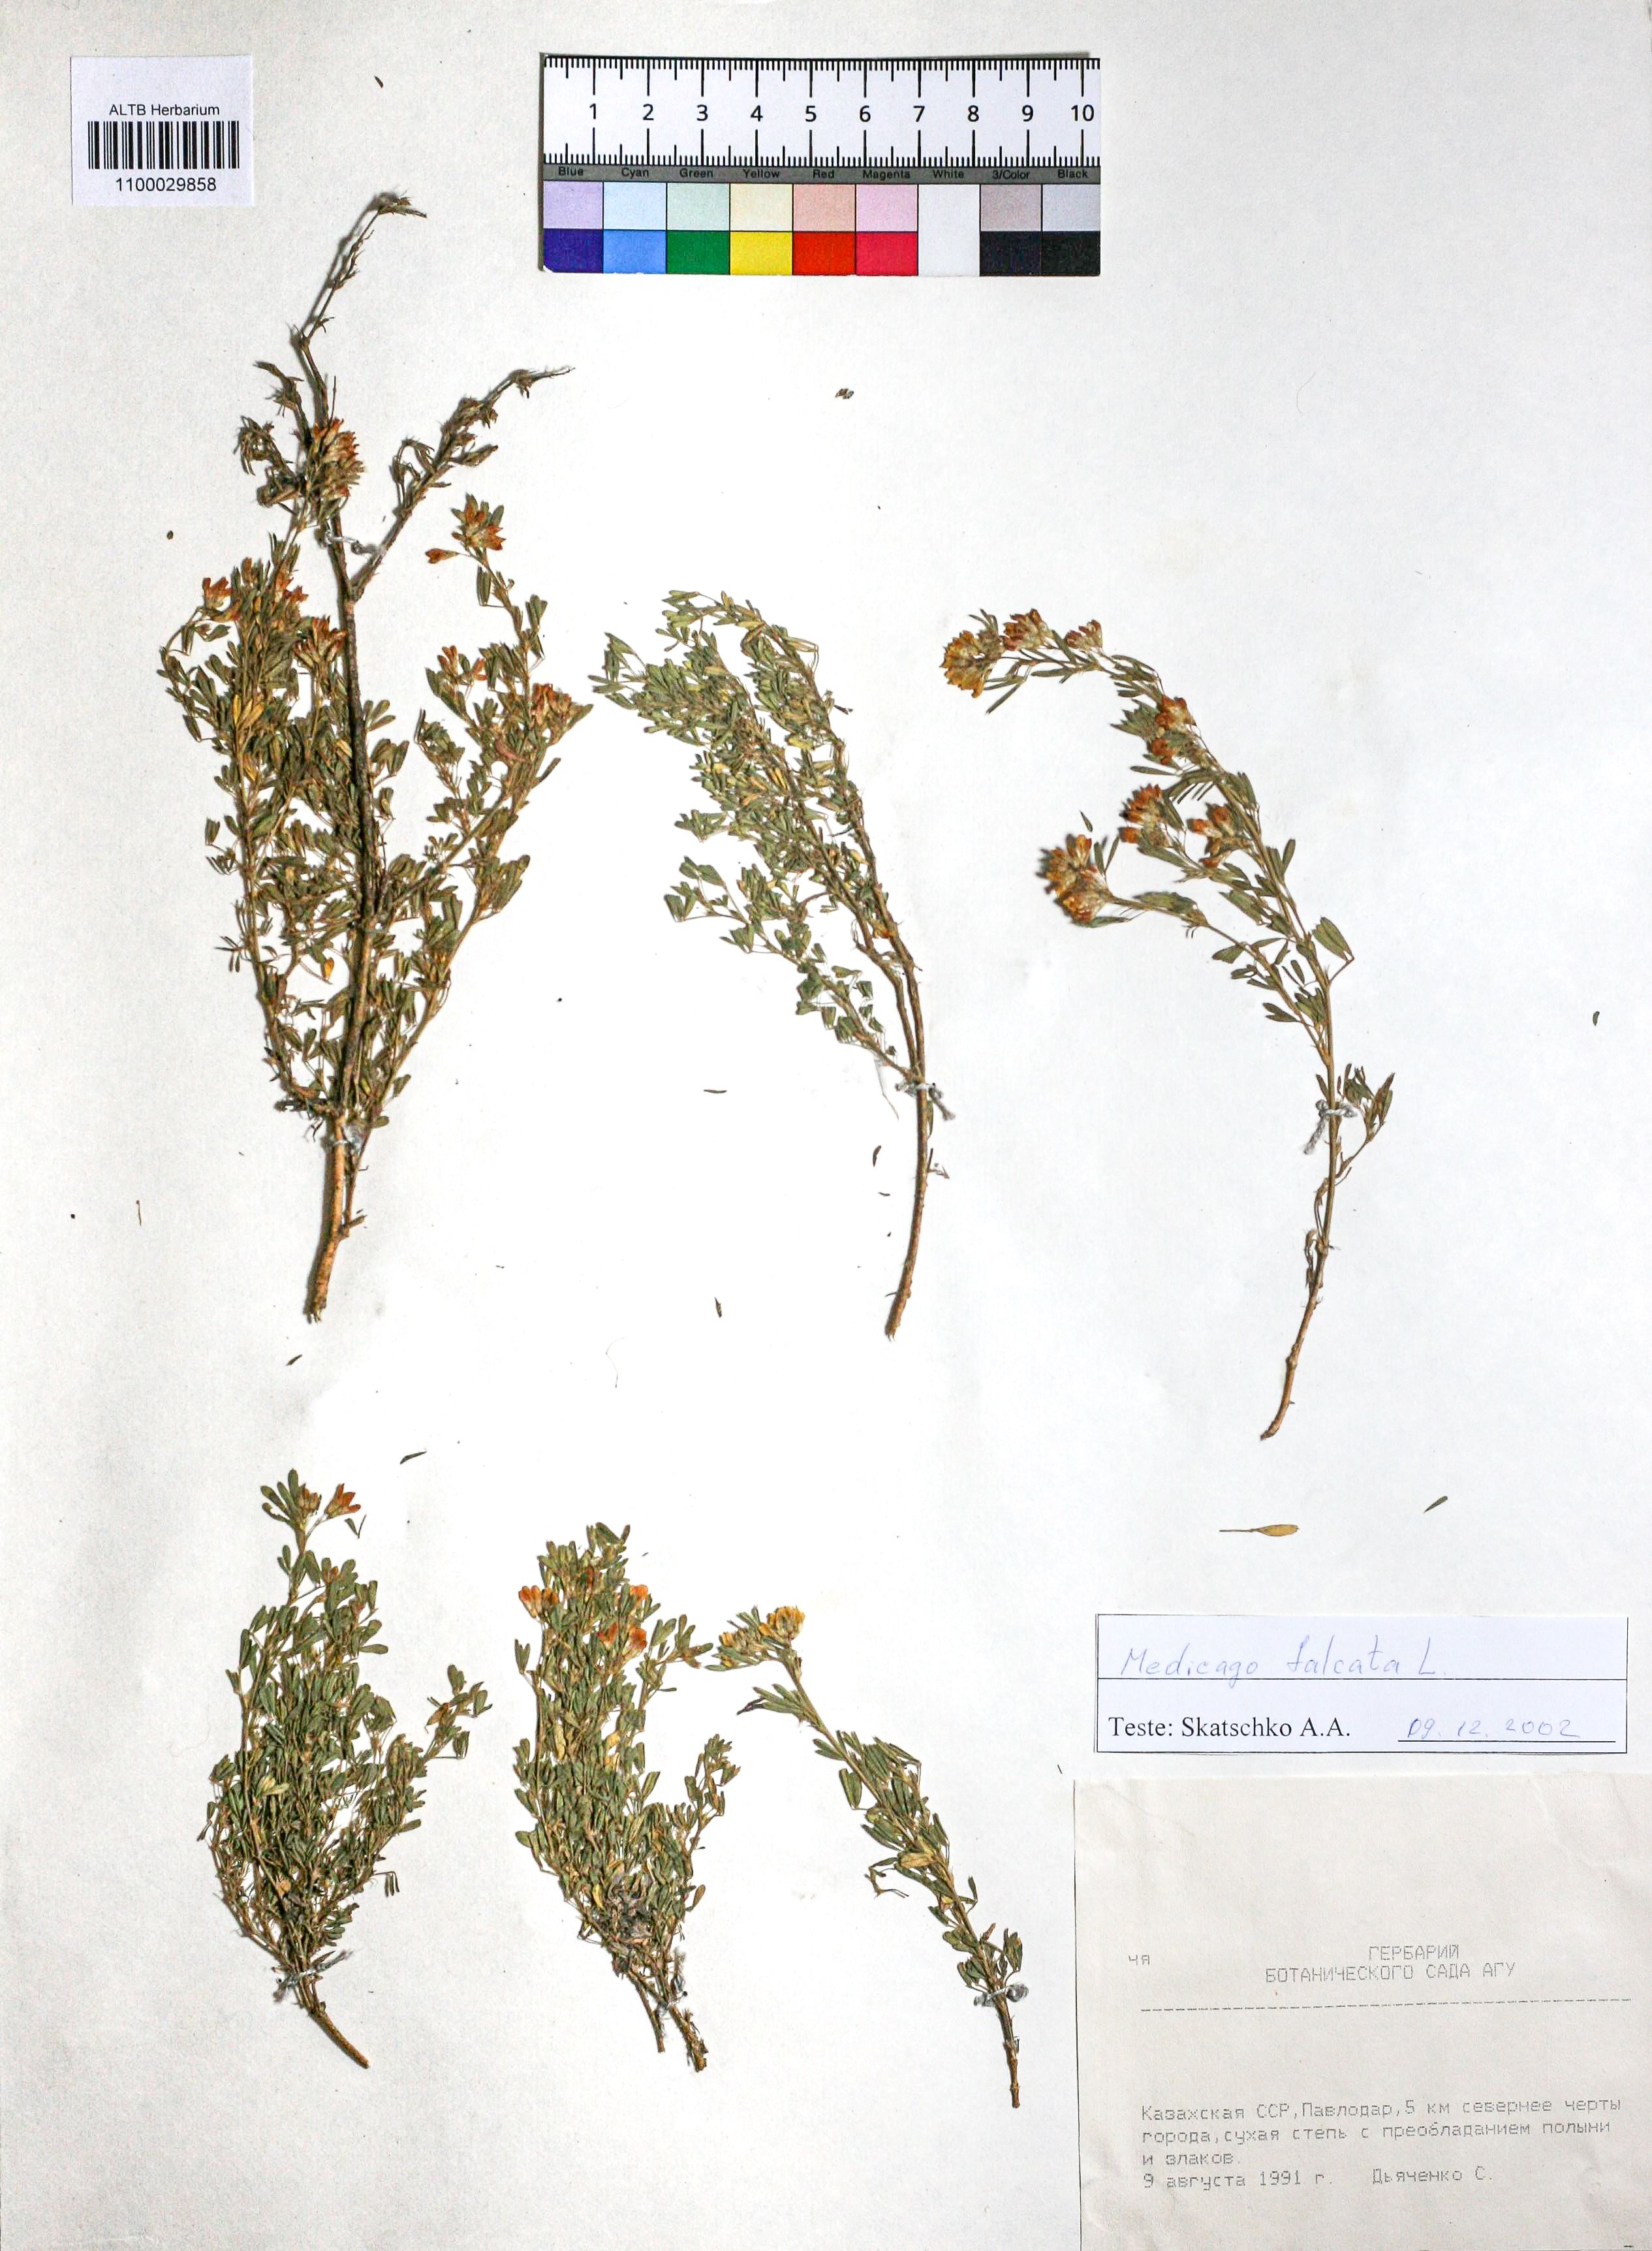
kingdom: Plantae
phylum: Tracheophyta
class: Magnoliopsida
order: Fabales
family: Fabaceae
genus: Medicago
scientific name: Medicago falcata
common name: Sickle medick
